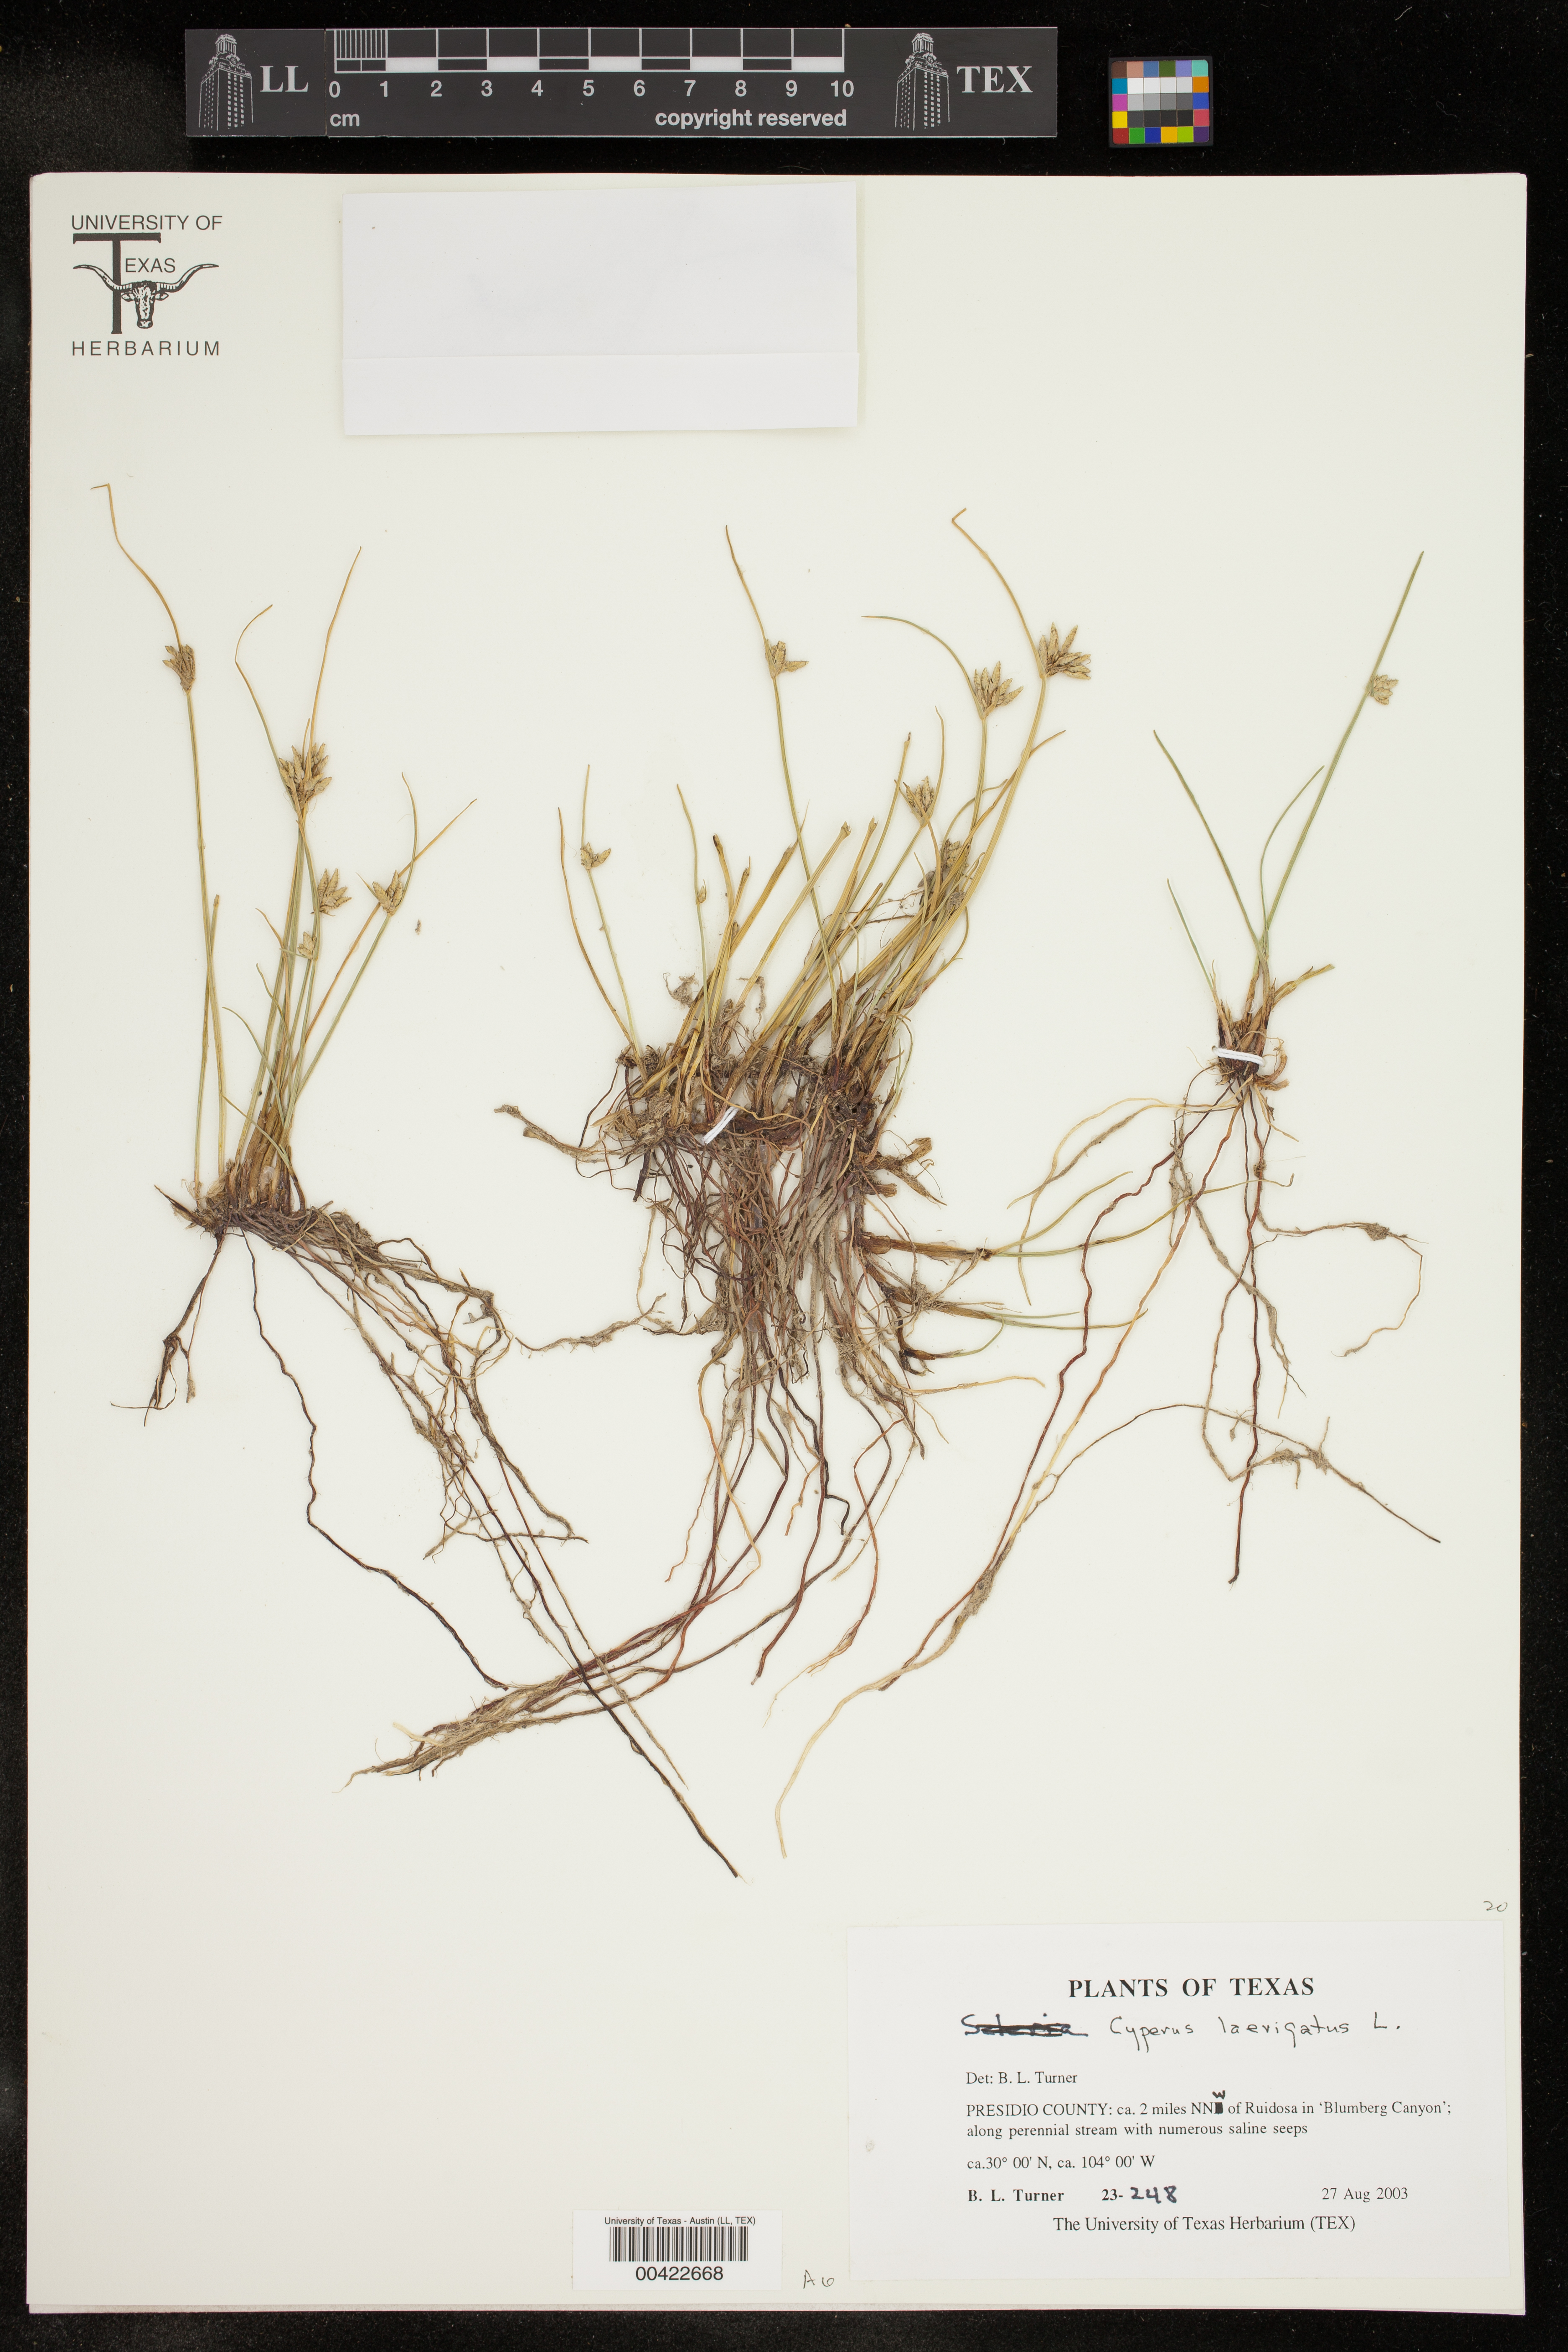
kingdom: Plantae
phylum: Tracheophyta
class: Liliopsida
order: Poales
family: Cyperaceae
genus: Cyperus
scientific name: Cyperus laevigatus
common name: Smooth flat sedge
